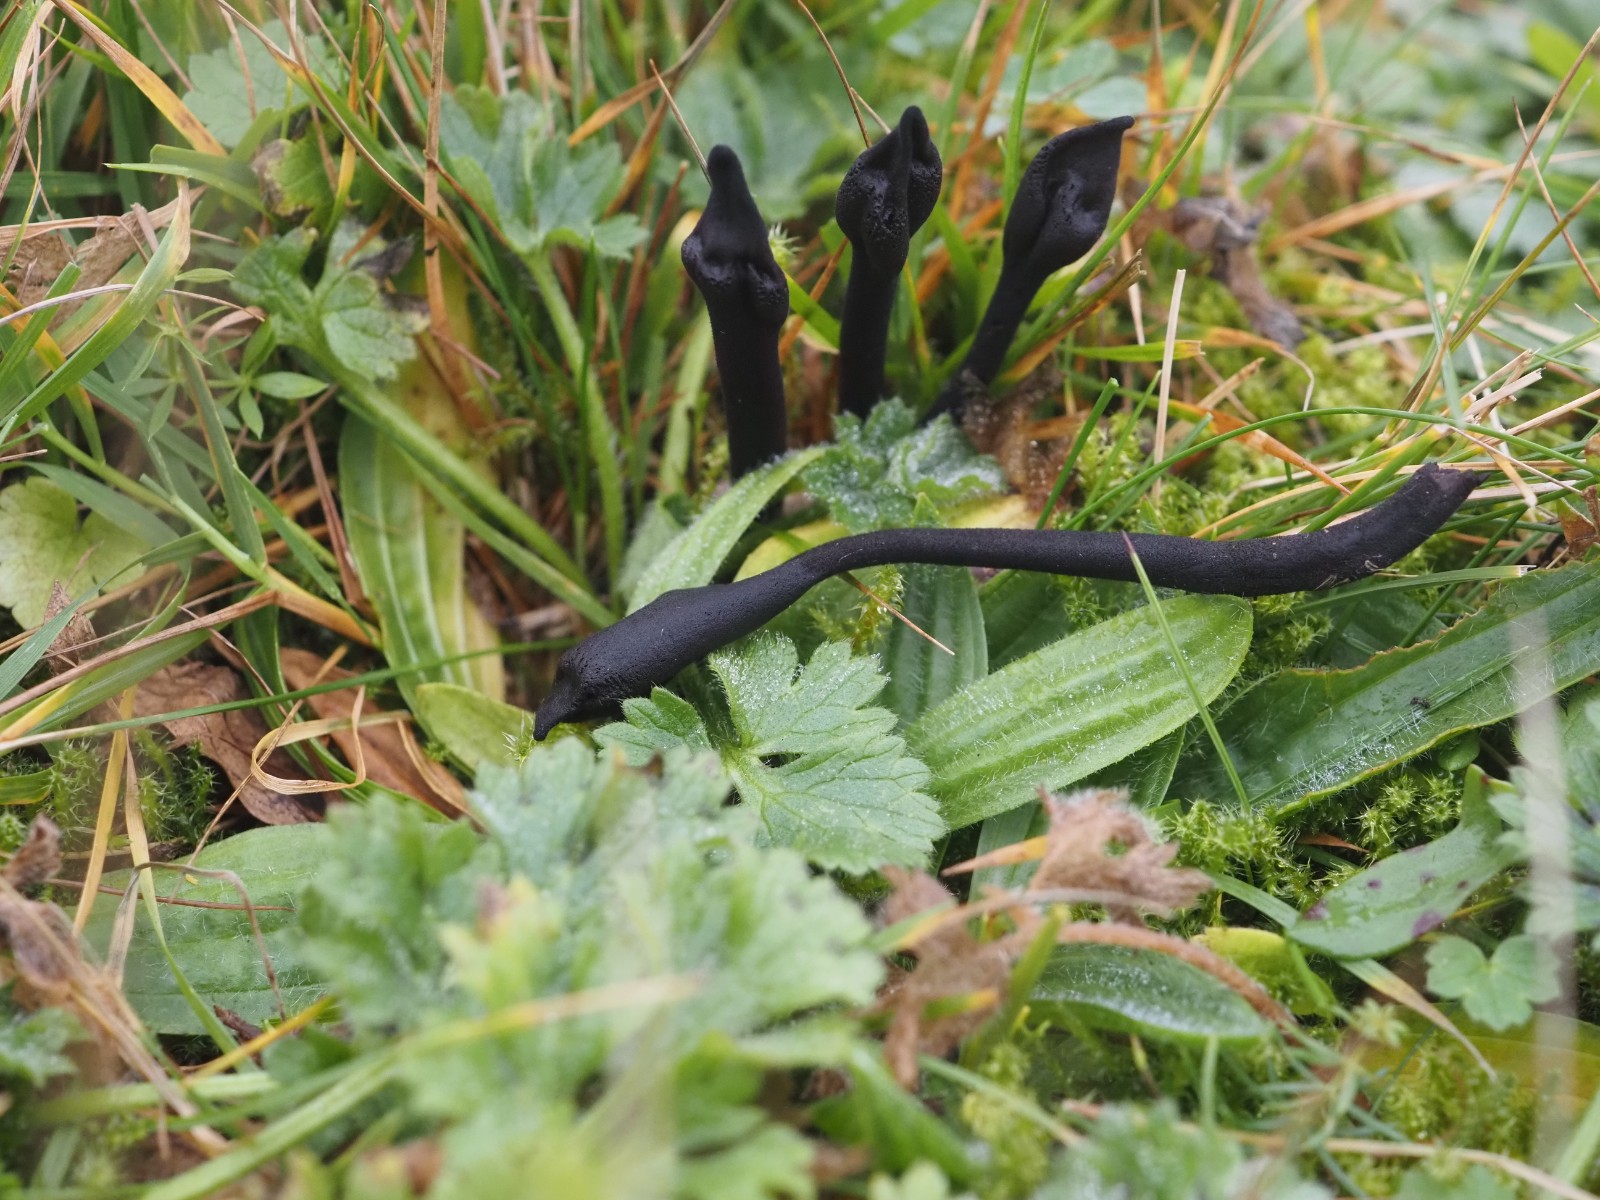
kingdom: Fungi
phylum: Ascomycota
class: Geoglossomycetes
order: Geoglossales
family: Geoglossaceae
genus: Trichoglossum
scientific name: Trichoglossum hirsutum
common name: håret jordtunge
